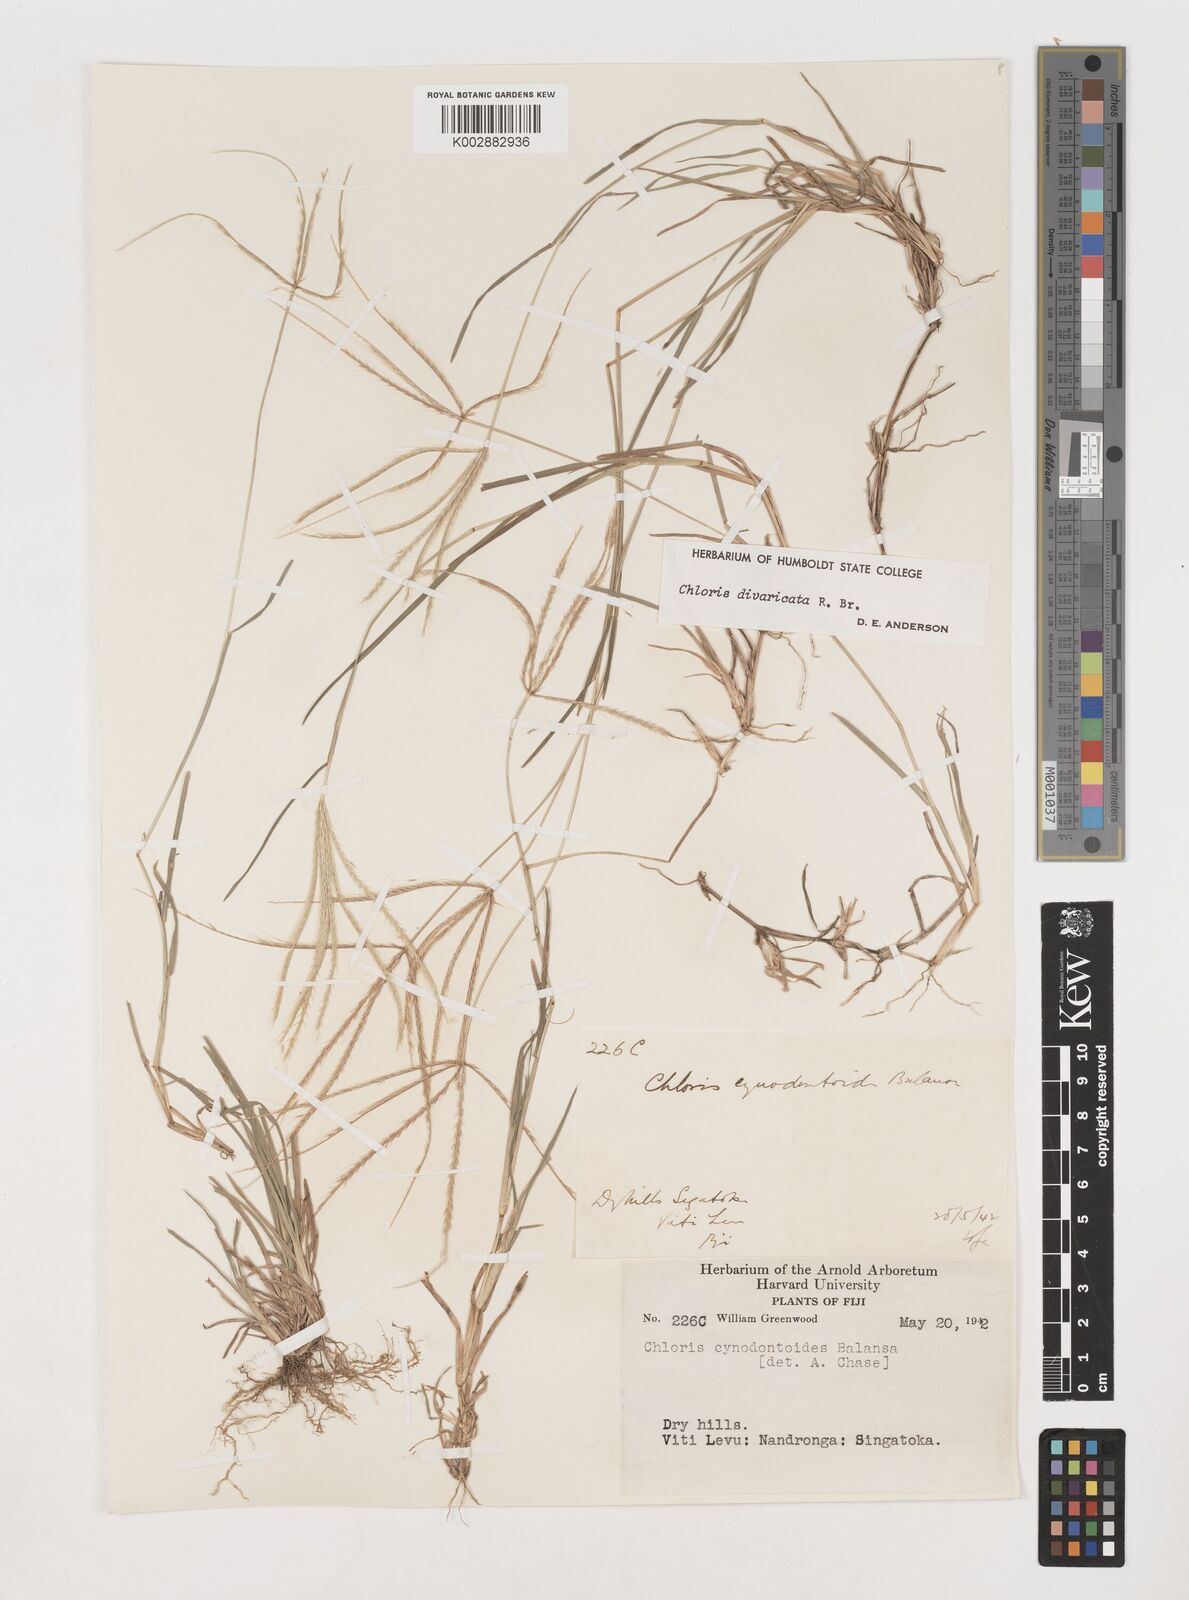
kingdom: Plantae
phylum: Tracheophyta
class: Liliopsida
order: Poales
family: Poaceae
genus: Chloris
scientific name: Chloris divaricata
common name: Spreading windmill grass
